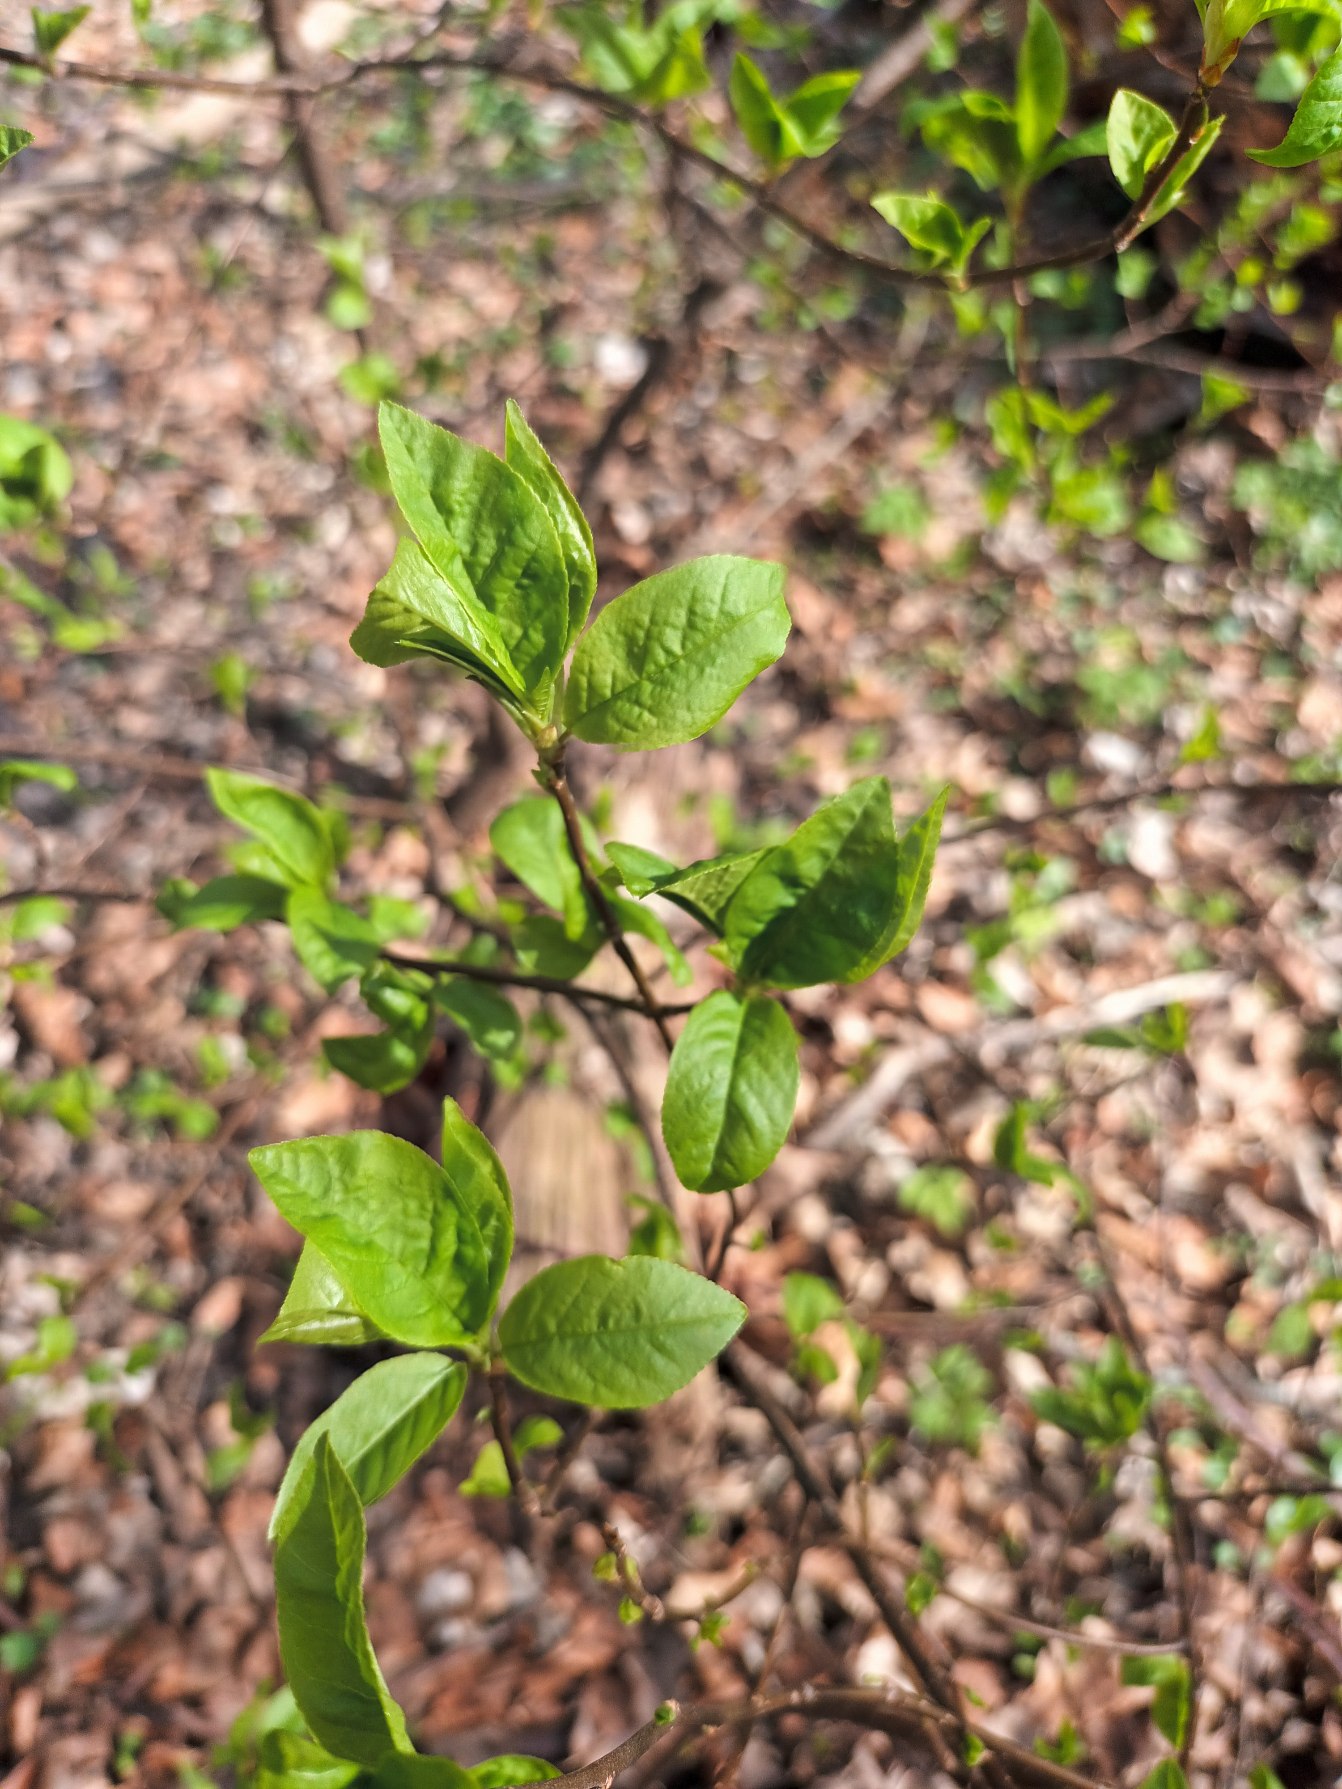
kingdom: Plantae
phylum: Tracheophyta
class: Magnoliopsida
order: Rosales
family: Rosaceae
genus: Prunus
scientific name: Prunus padus
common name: Almindelig hæg
